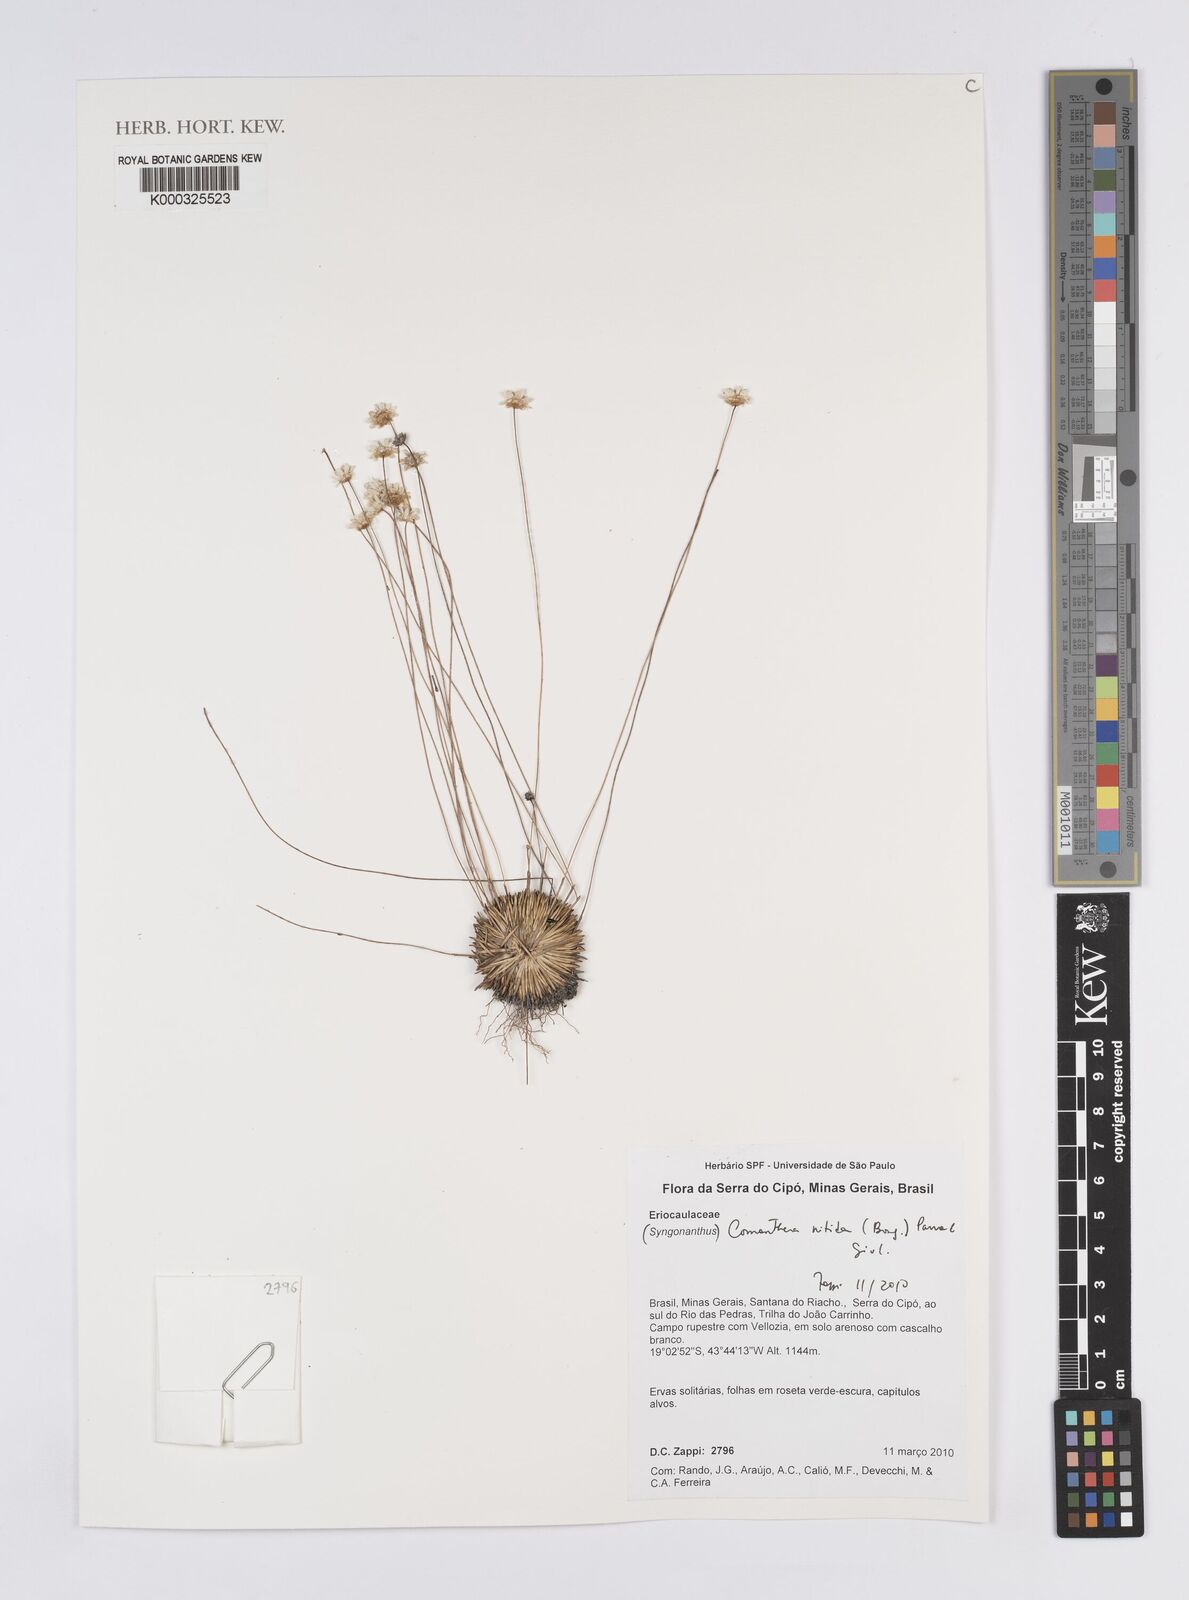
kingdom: Plantae
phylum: Tracheophyta
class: Liliopsida
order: Poales
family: Eriocaulaceae
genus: Comanthera
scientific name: Comanthera nitida
